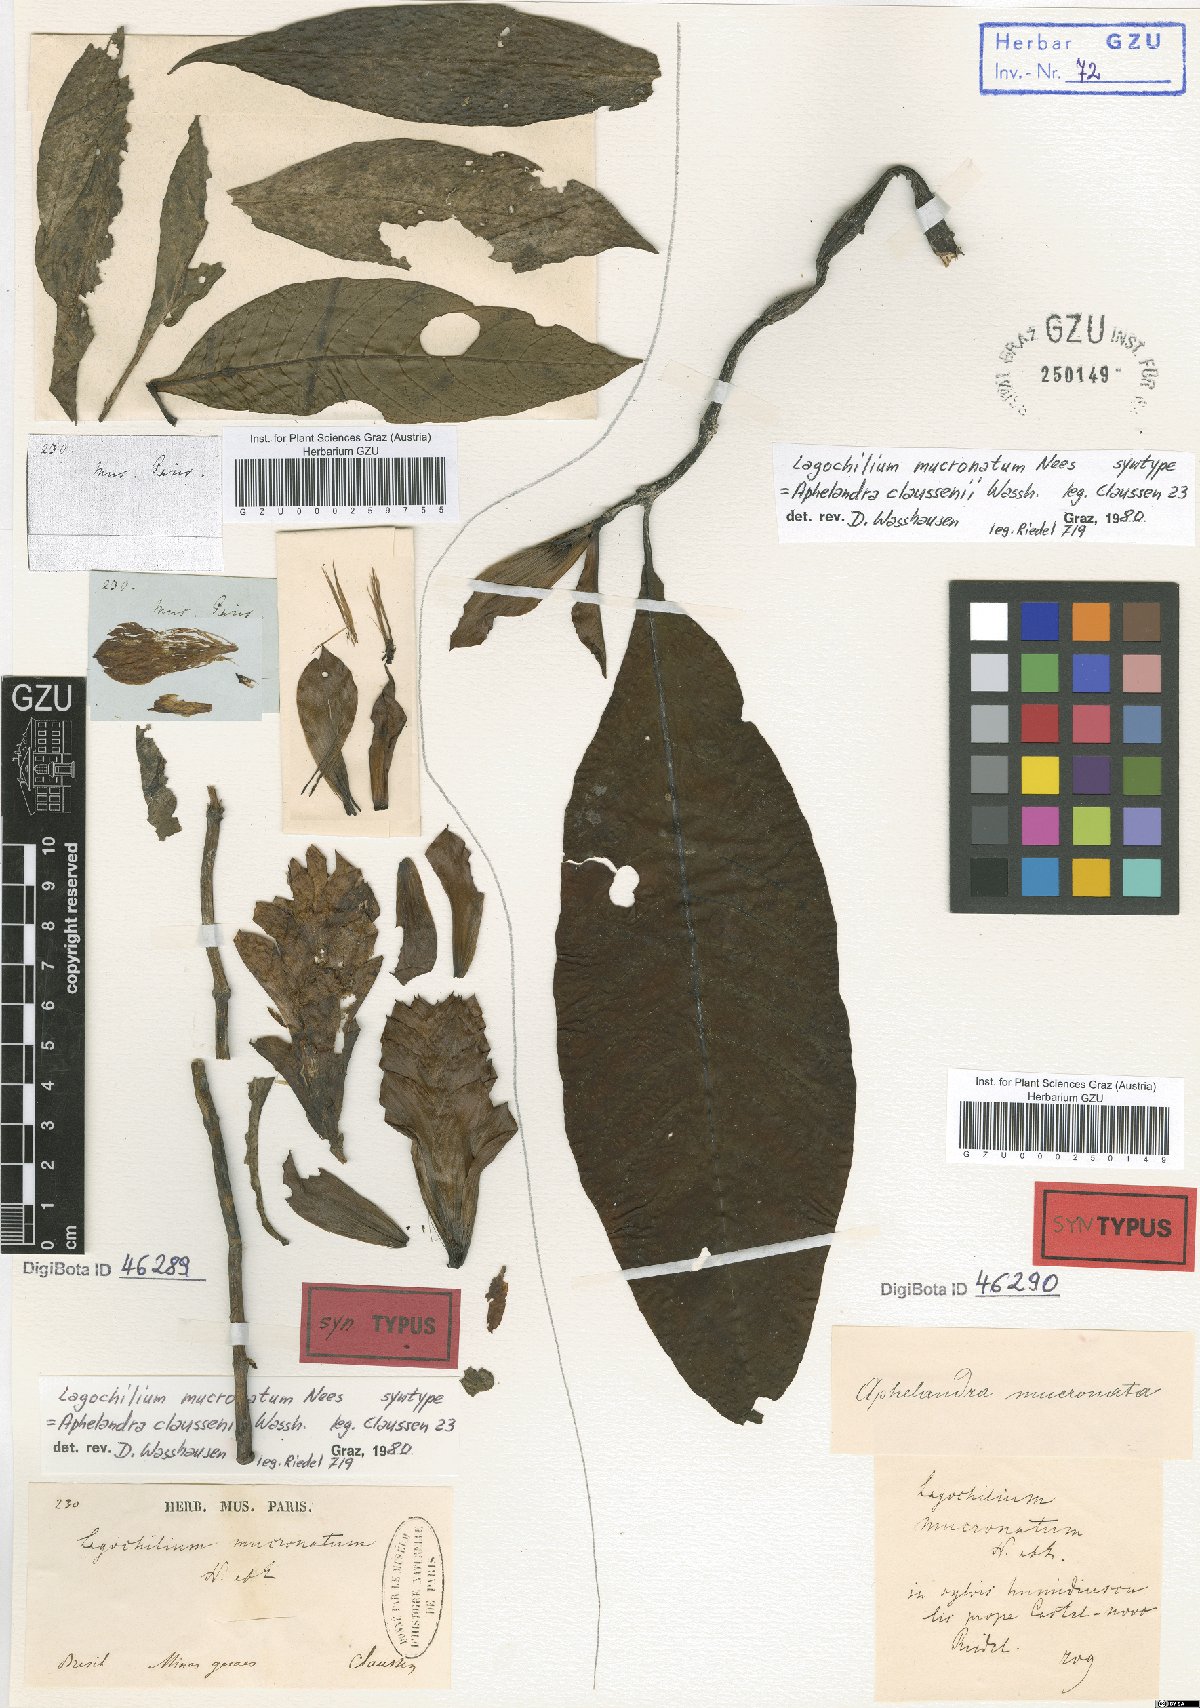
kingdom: Plantae
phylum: Tracheophyta
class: Magnoliopsida
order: Lamiales
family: Acanthaceae
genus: Aphelandra
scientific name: Aphelandra claussenii
